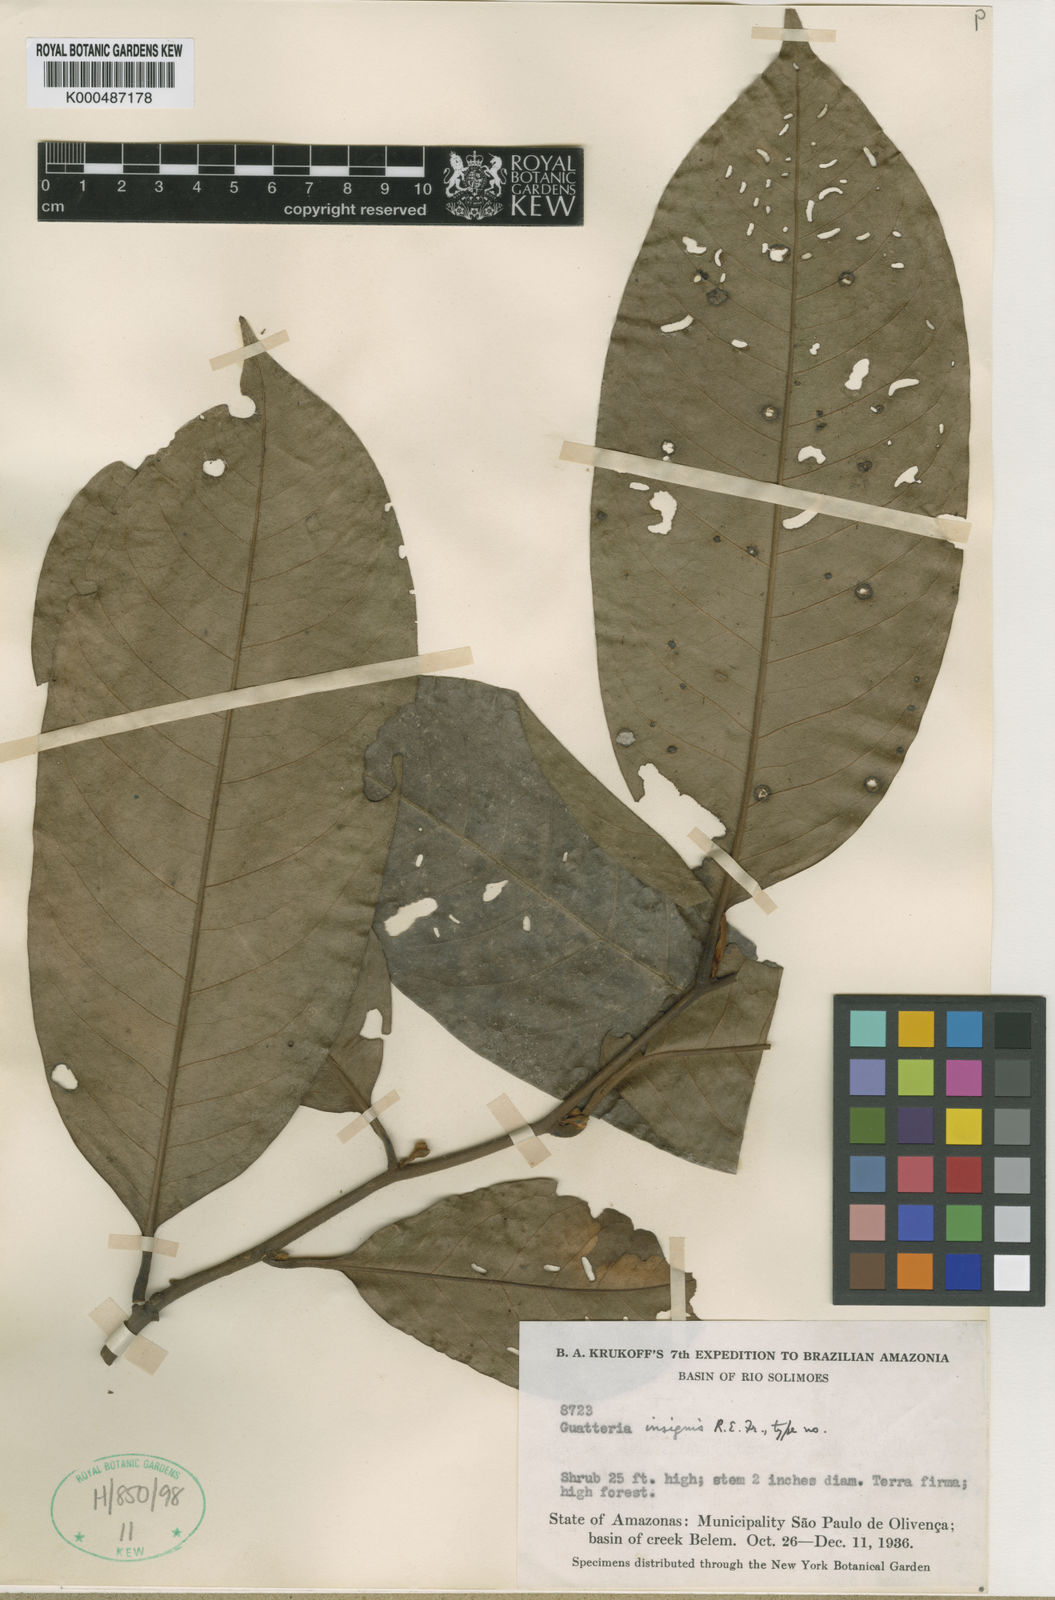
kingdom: Plantae
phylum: Tracheophyta
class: Magnoliopsida
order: Magnoliales
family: Annonaceae
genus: Guatteria
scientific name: Guatteria insignis
